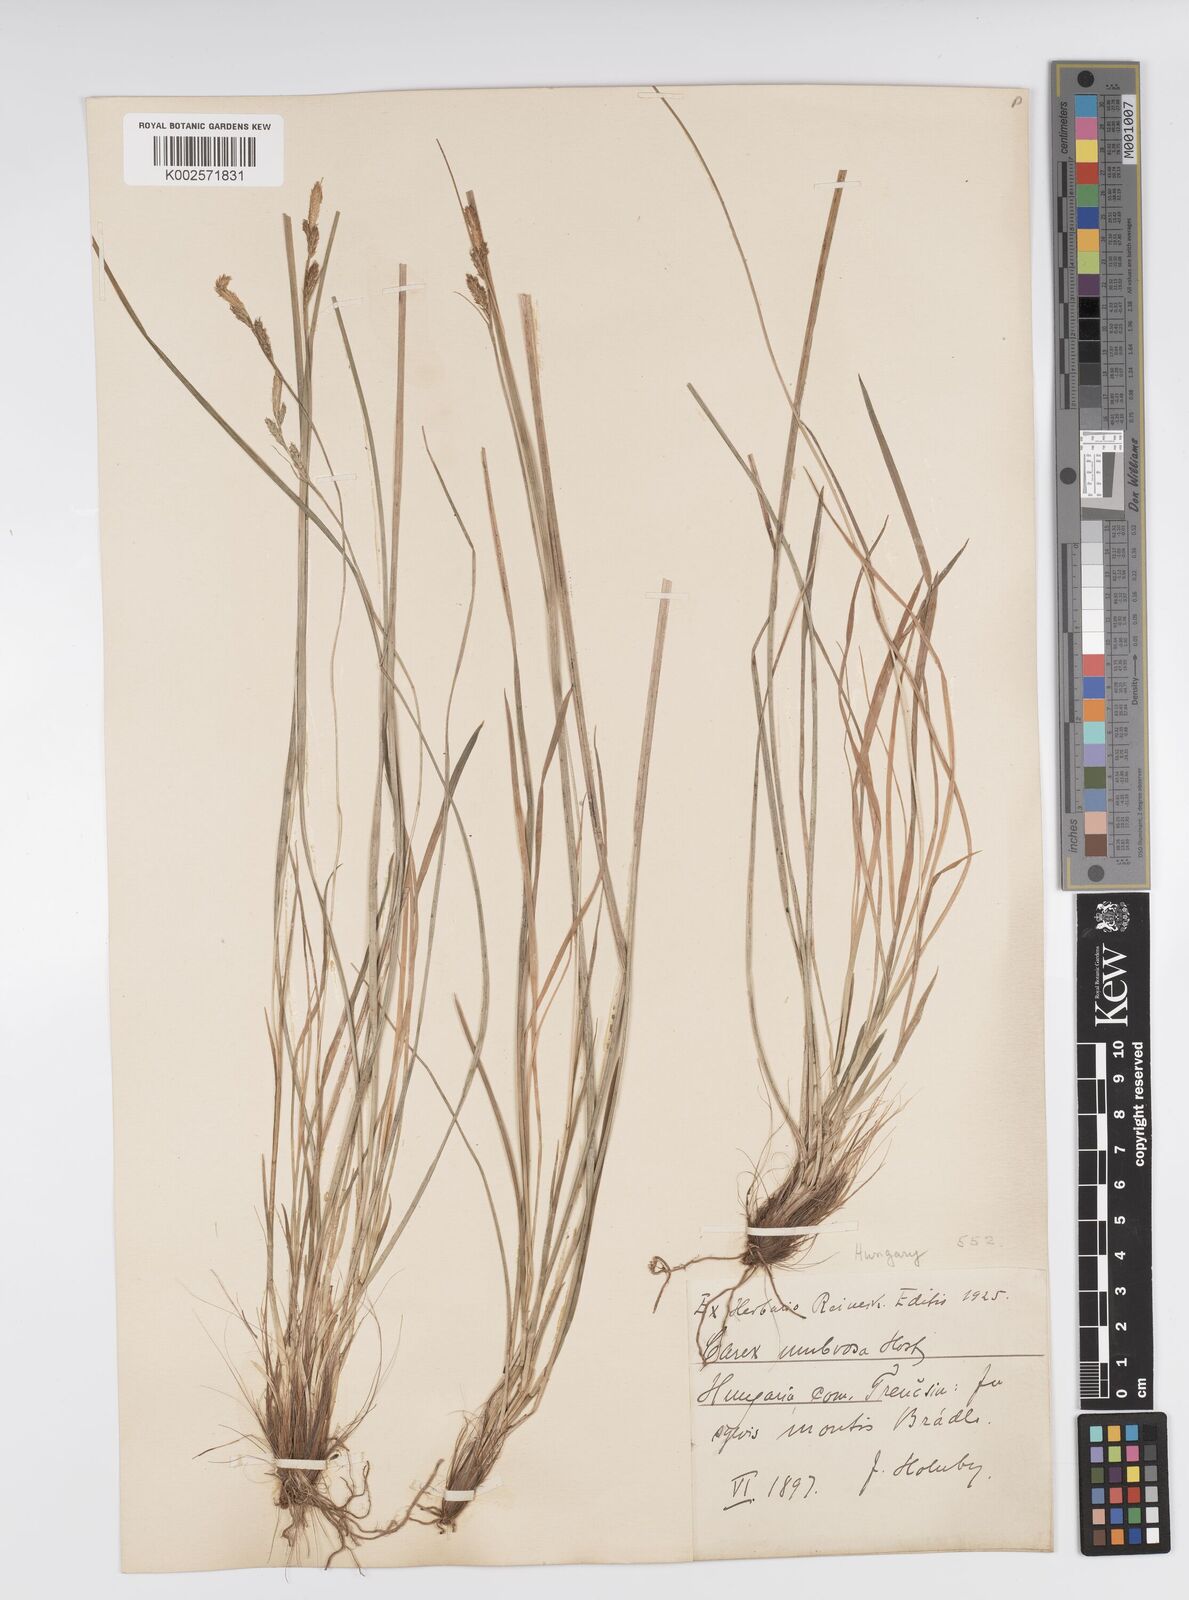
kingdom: Plantae
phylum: Tracheophyta
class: Liliopsida
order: Poales
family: Cyperaceae
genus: Carex
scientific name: Carex umbrosa
